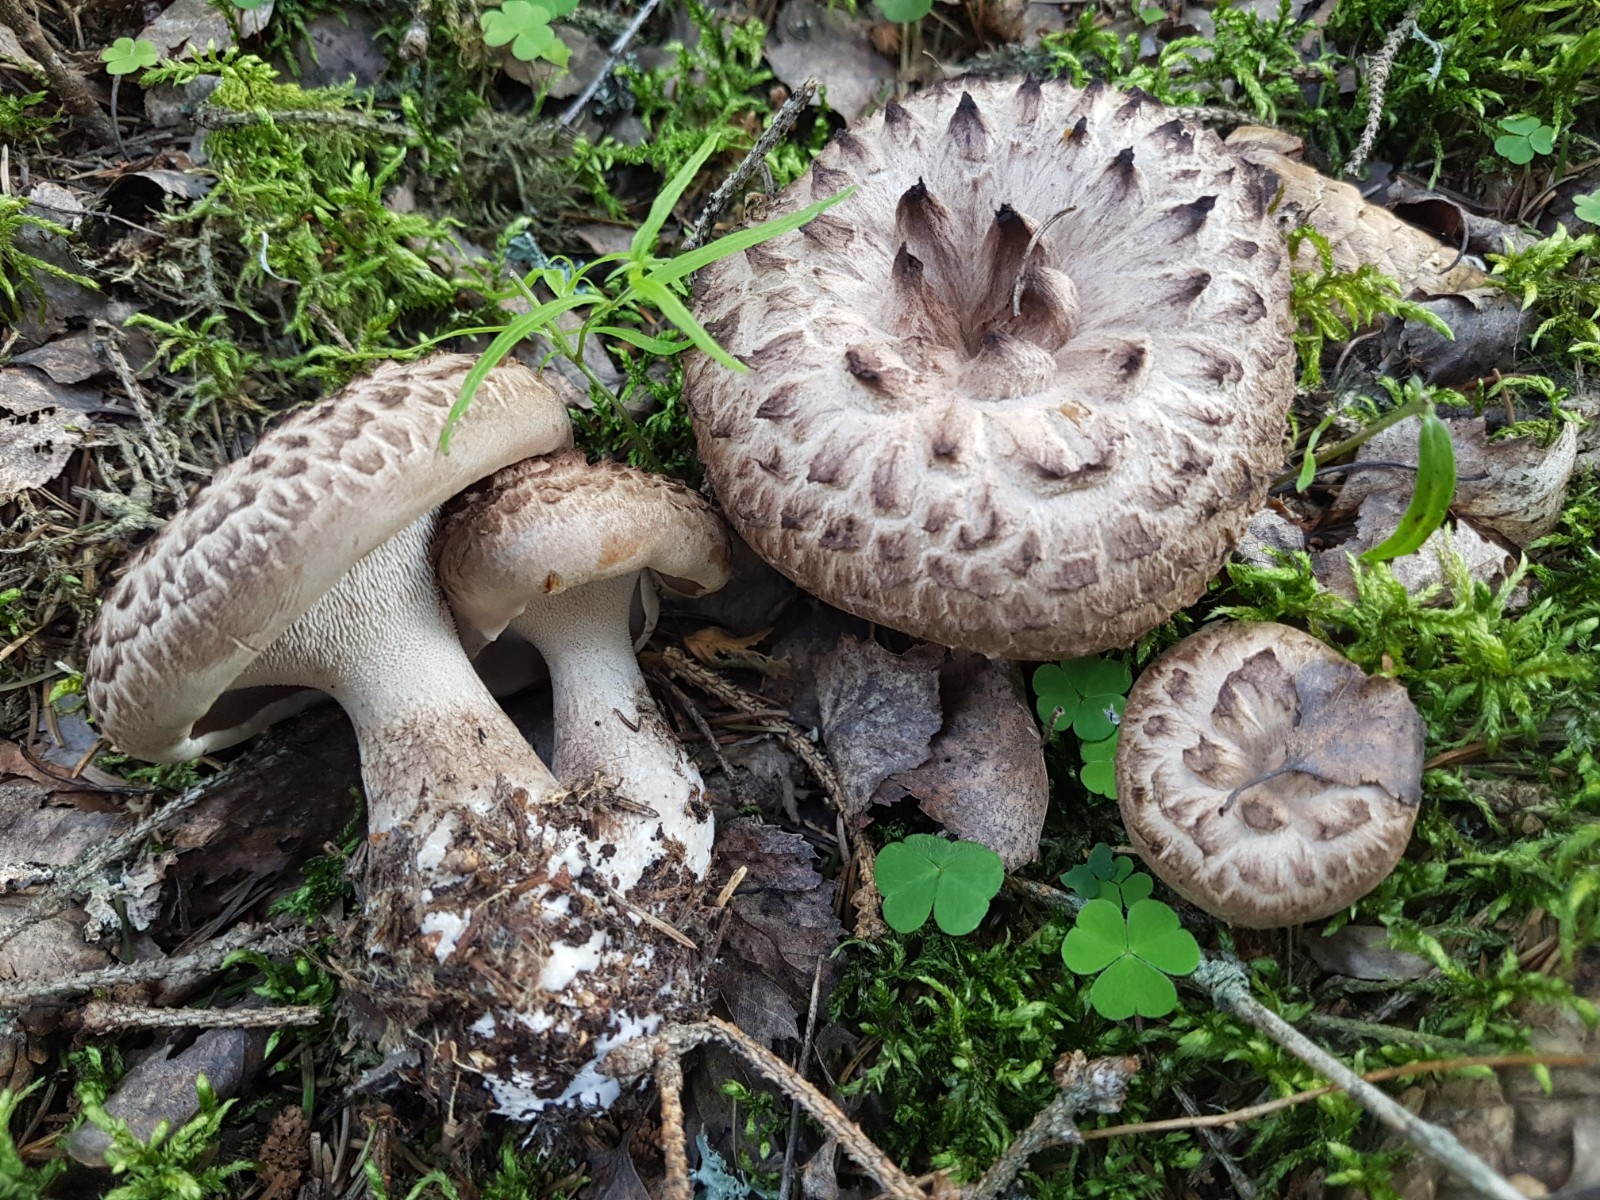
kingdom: Fungi
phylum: Basidiomycota
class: Agaricomycetes
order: Thelephorales
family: Bankeraceae
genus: Sarcodon
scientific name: Sarcodon imbricatus
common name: skællet kødpigsvamp
